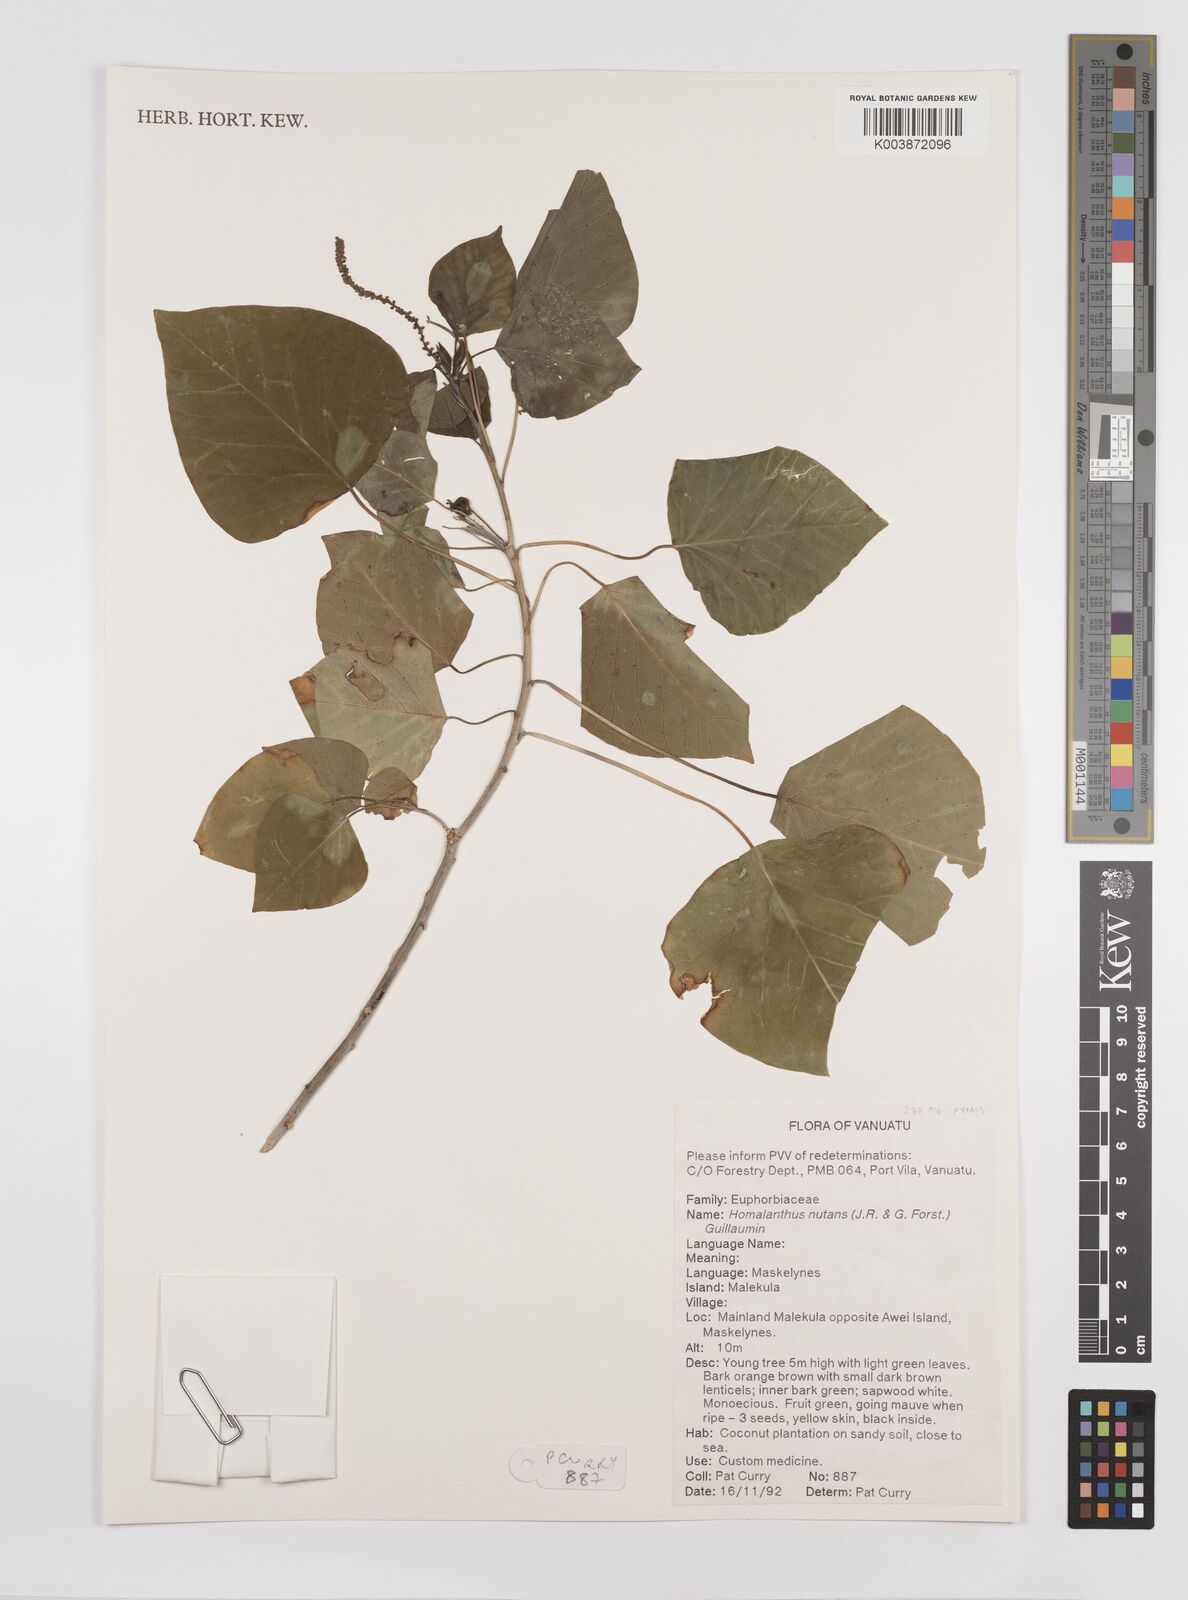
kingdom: Plantae
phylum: Tracheophyta
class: Magnoliopsida
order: Malpighiales
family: Euphorbiaceae
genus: Homalanthus
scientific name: Homalanthus nutans
